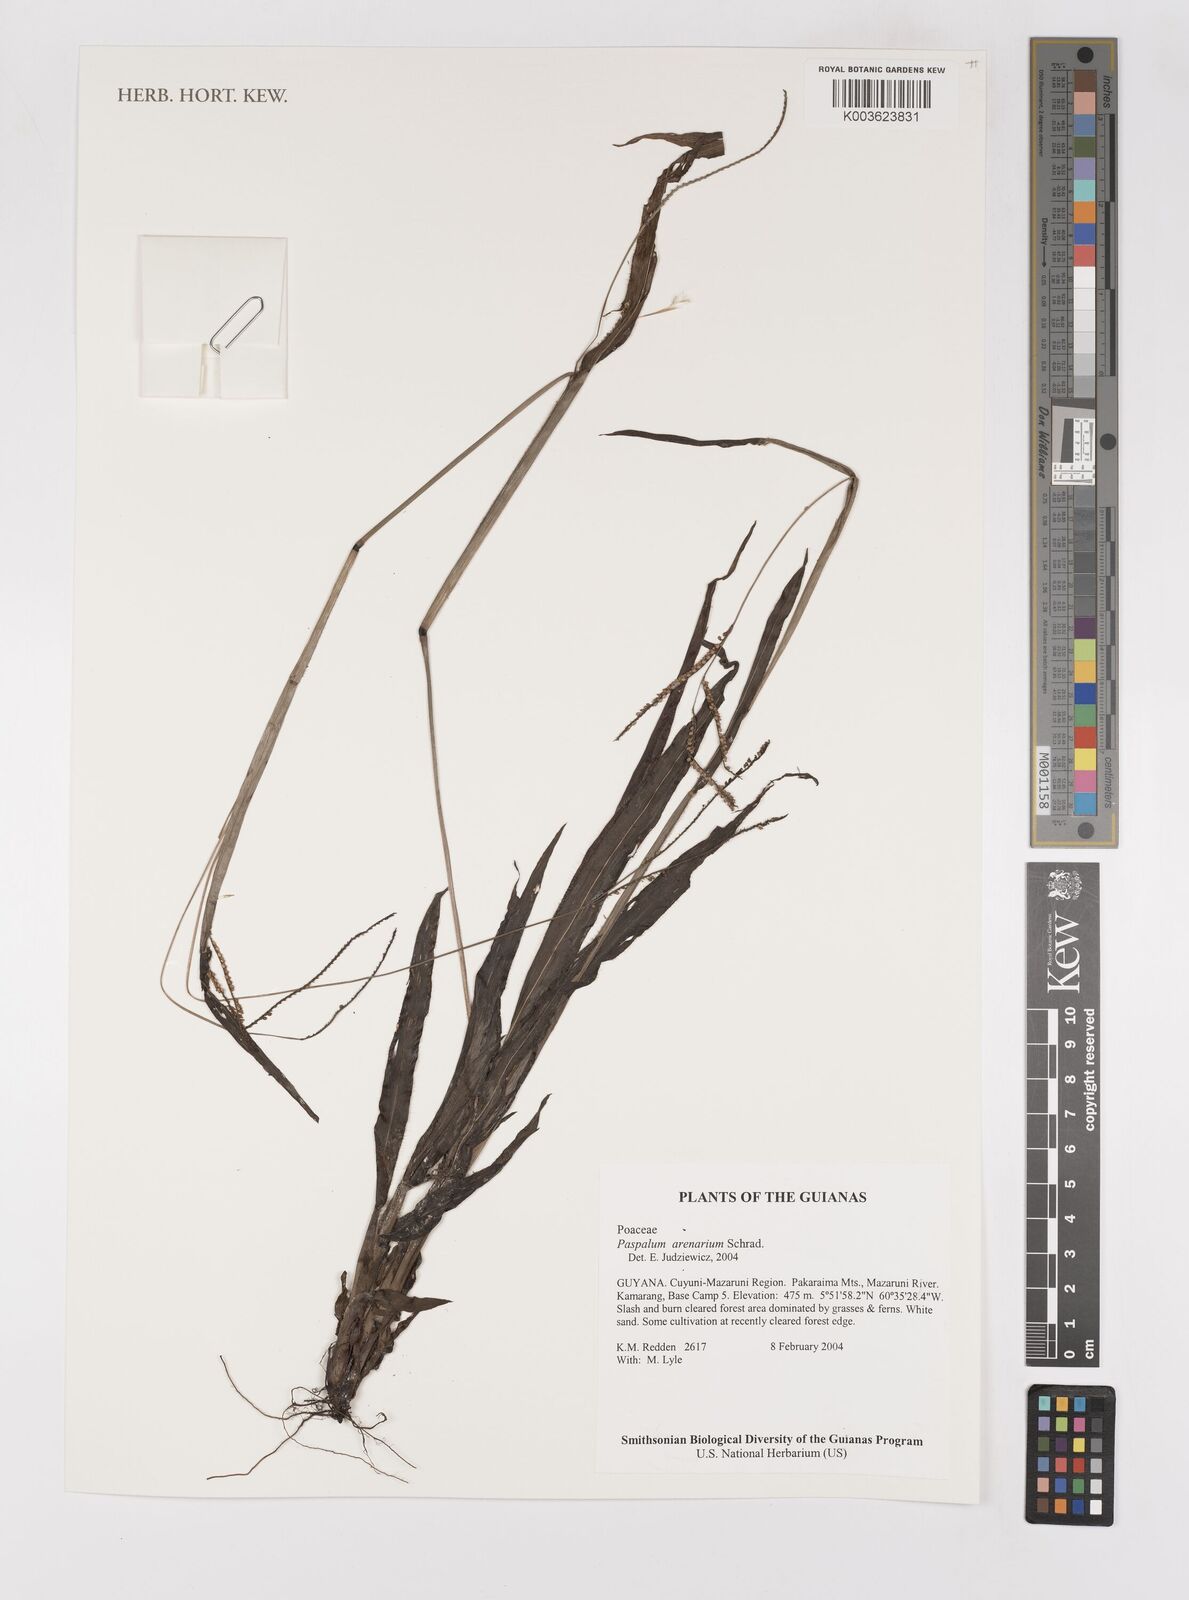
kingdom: Plantae
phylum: Tracheophyta
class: Liliopsida
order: Poales
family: Poaceae
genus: Paspalum
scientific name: Paspalum arenarium
